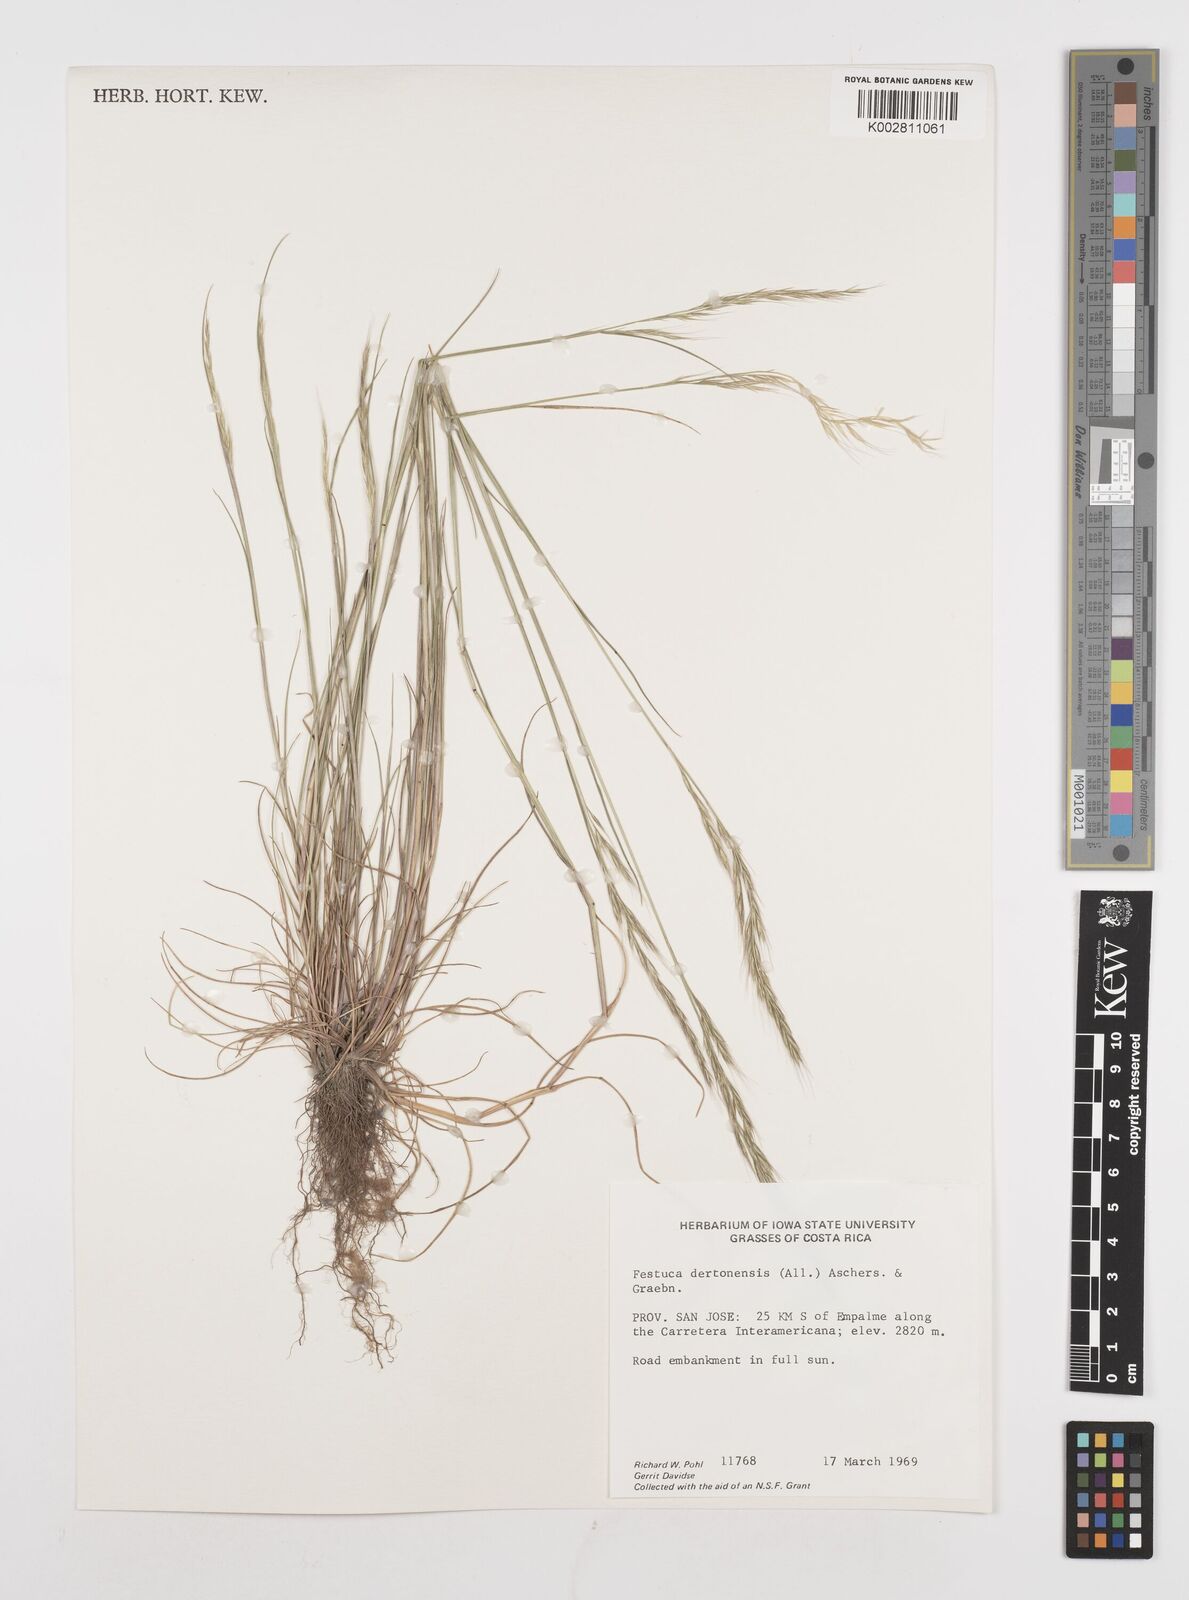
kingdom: Plantae
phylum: Tracheophyta
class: Liliopsida
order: Poales
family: Poaceae
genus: Festuca
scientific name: Festuca bromoides
